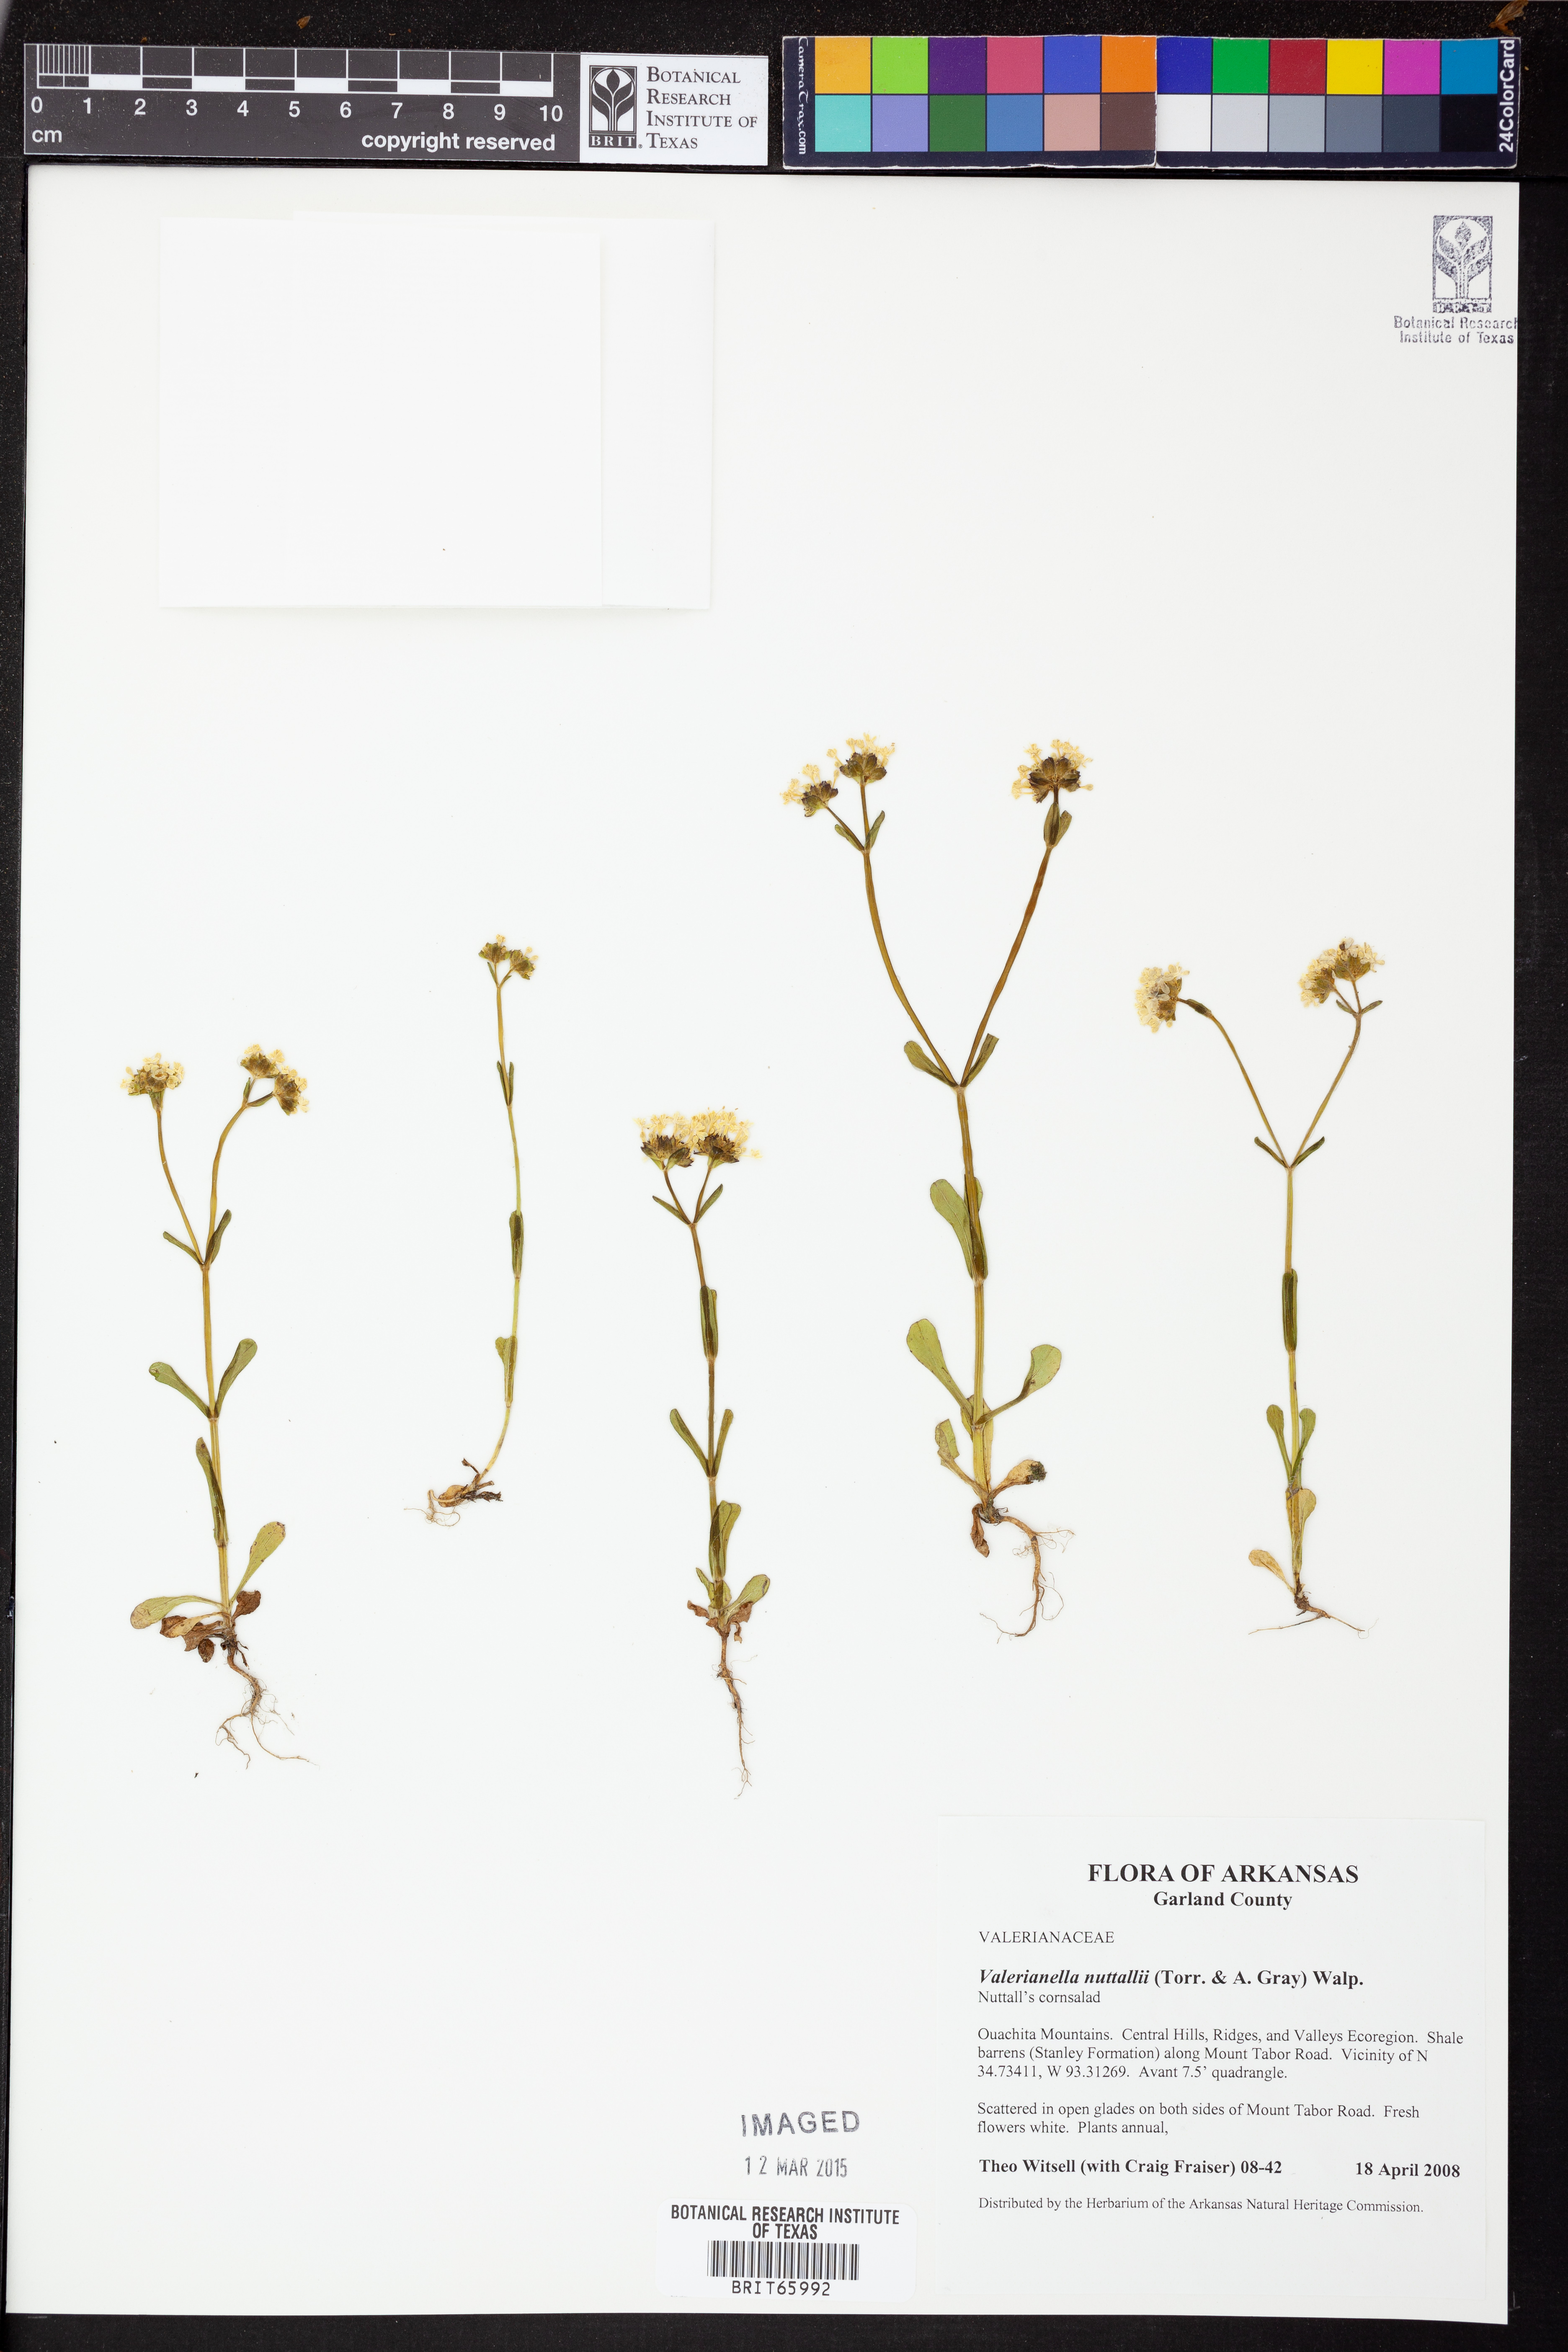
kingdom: Plantae
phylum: Tracheophyta
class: Magnoliopsida
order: Dipsacales
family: Caprifoliaceae
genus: Valerianella
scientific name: Valerianella nuttallii
